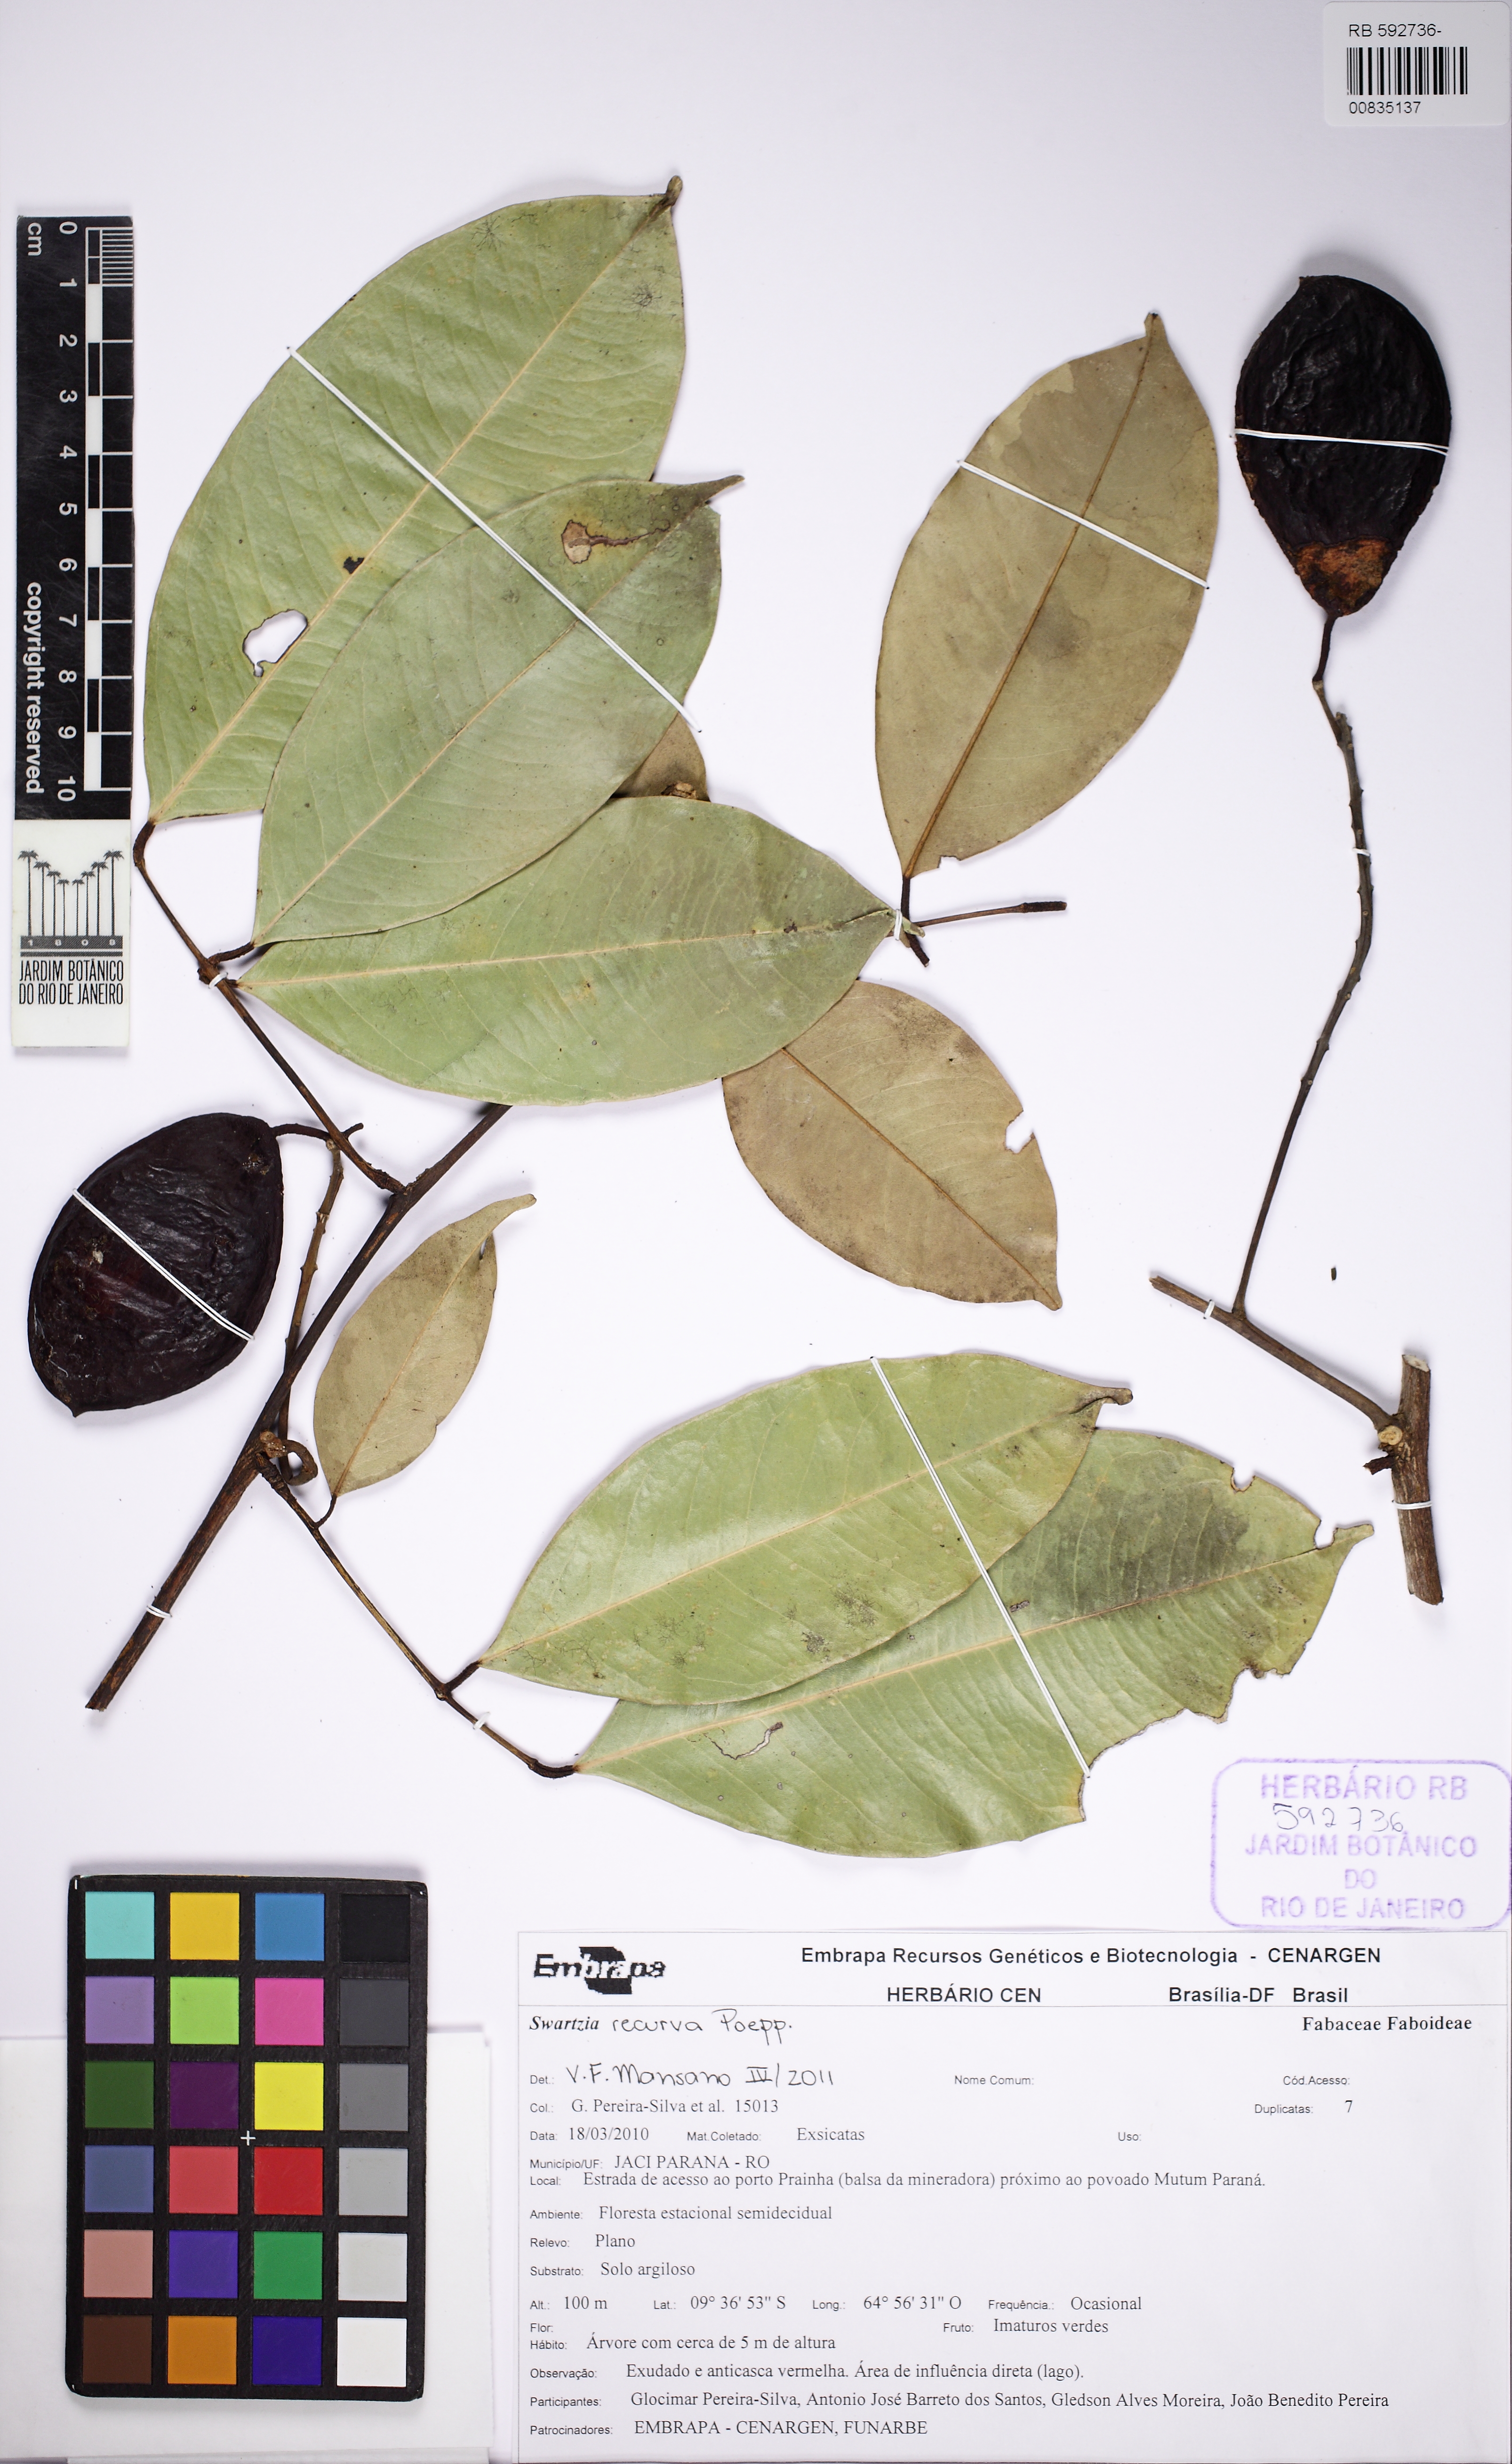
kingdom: Plantae
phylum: Tracheophyta
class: Magnoliopsida
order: Fabales
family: Fabaceae
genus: Swartzia
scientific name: Swartzia recurva
